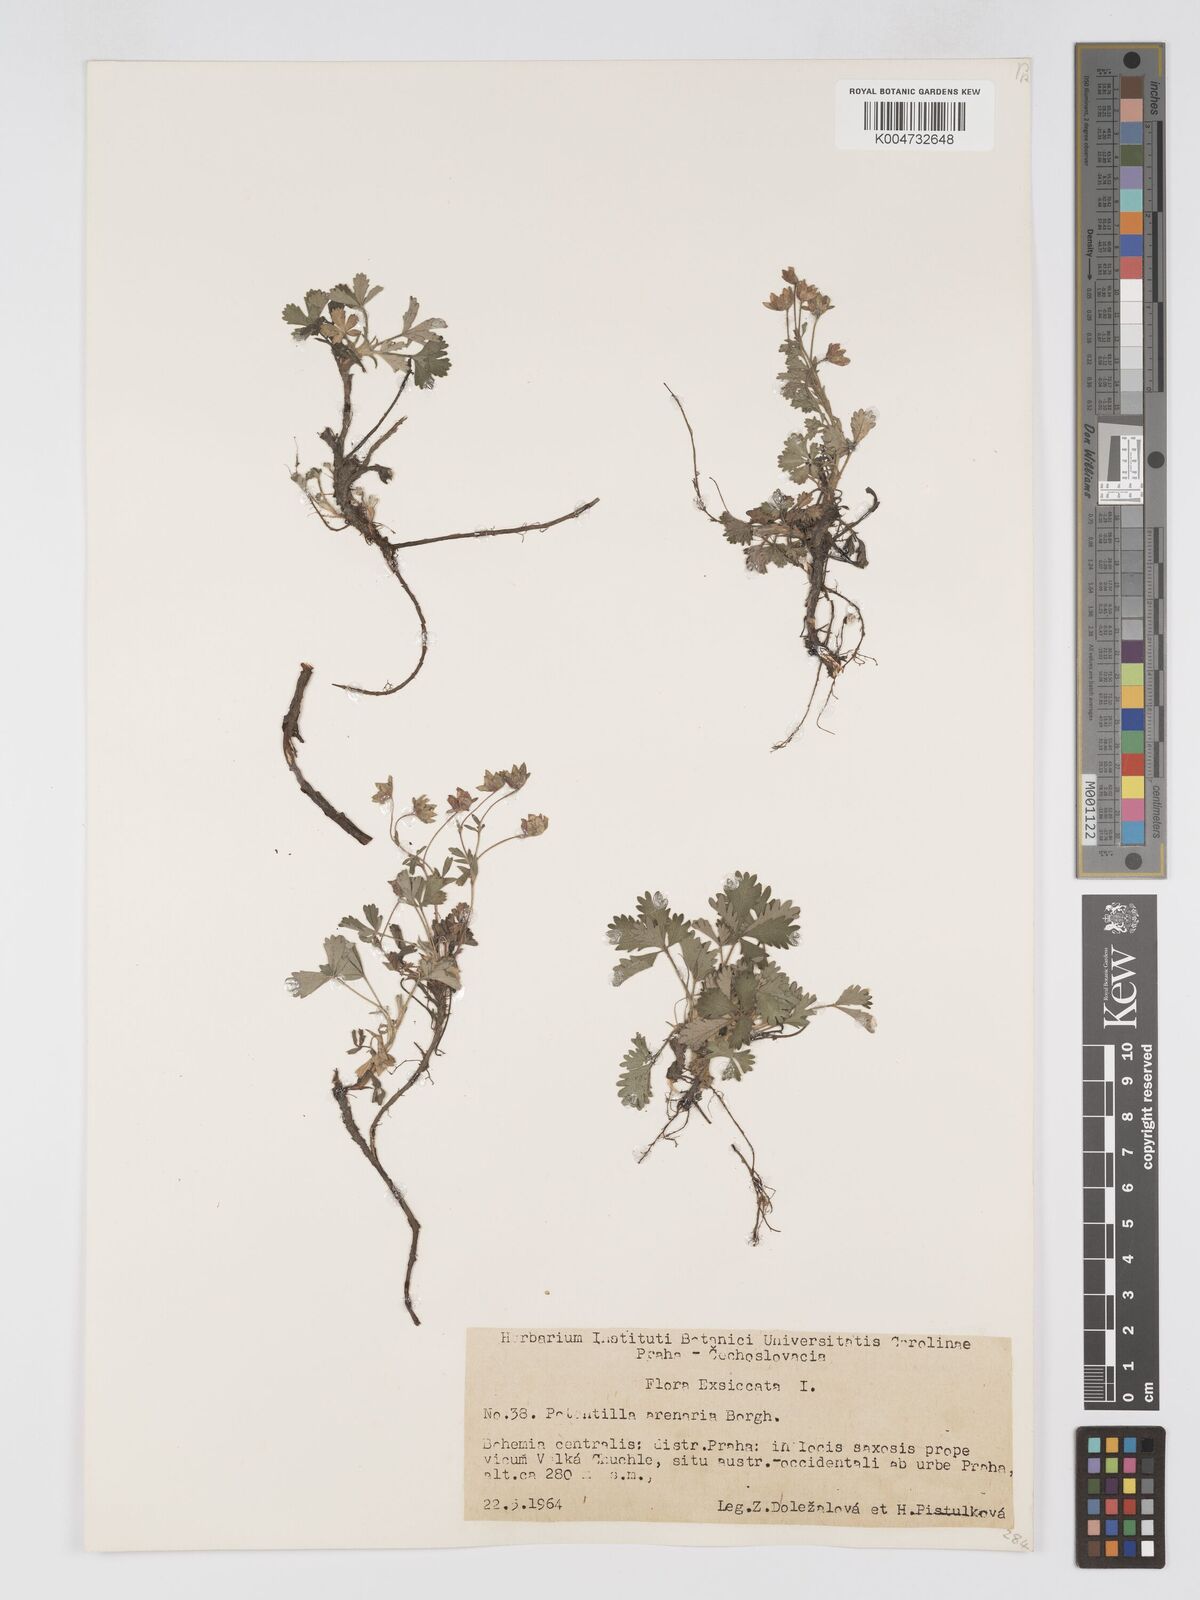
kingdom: Plantae
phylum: Tracheophyta
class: Magnoliopsida
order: Rosales
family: Rosaceae
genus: Potentilla
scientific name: Potentilla cinerea
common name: Ashy cinquefoil
